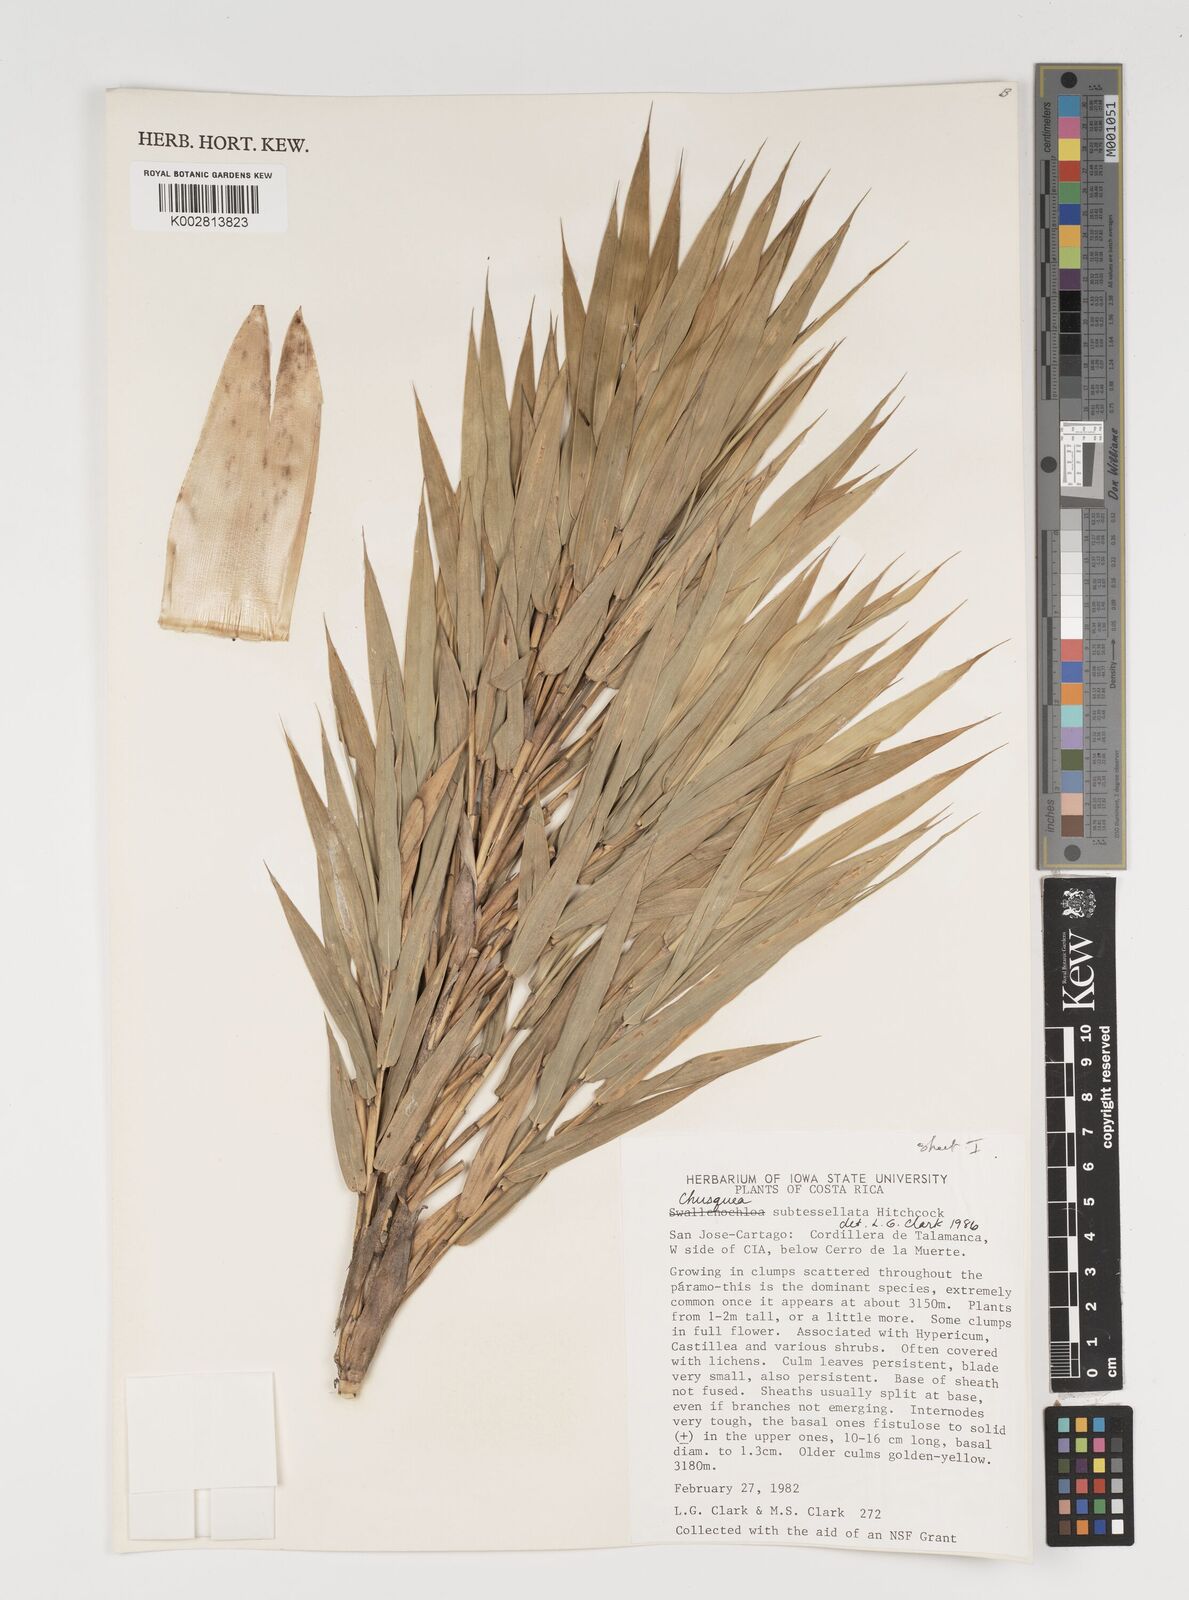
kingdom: Plantae
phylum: Tracheophyta
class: Liliopsida
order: Poales
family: Poaceae
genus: Chusquea
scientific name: Chusquea subtessellata
